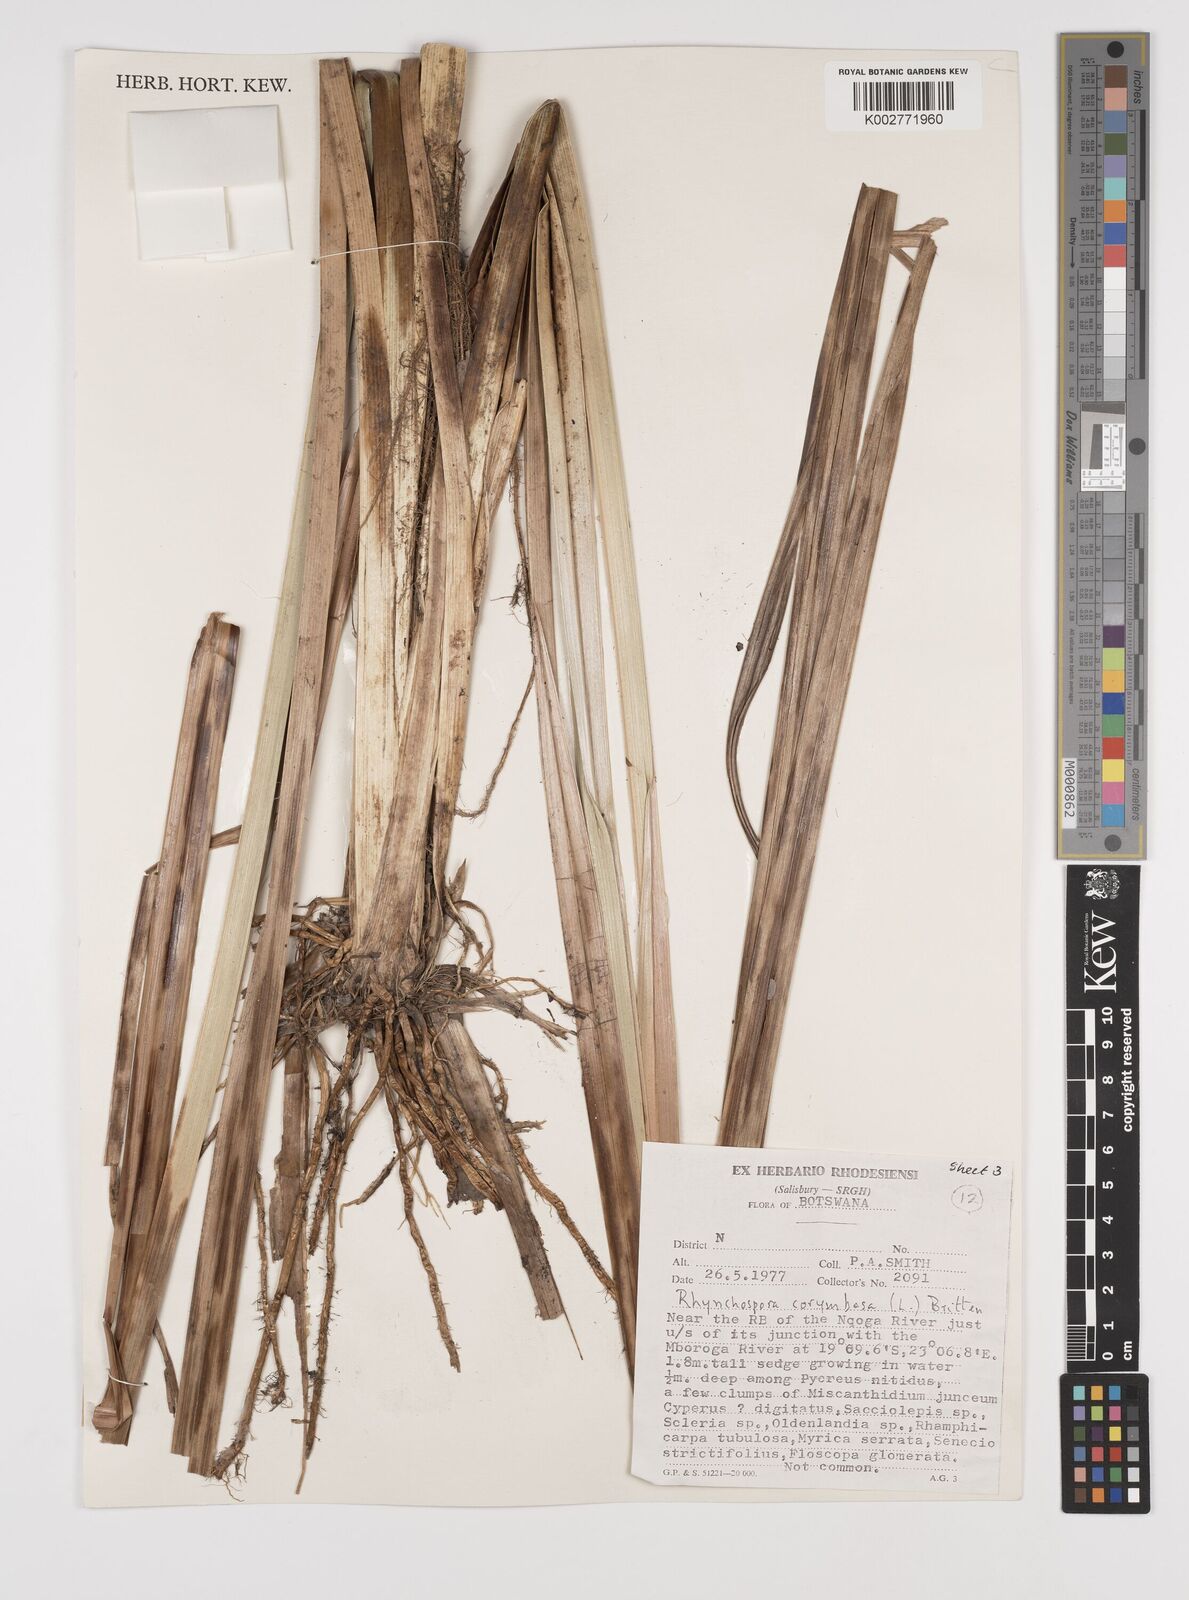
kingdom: Plantae
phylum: Tracheophyta
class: Liliopsida
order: Poales
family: Cyperaceae
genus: Rhynchospora
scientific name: Rhynchospora corymbosa
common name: Golden beak sedge
